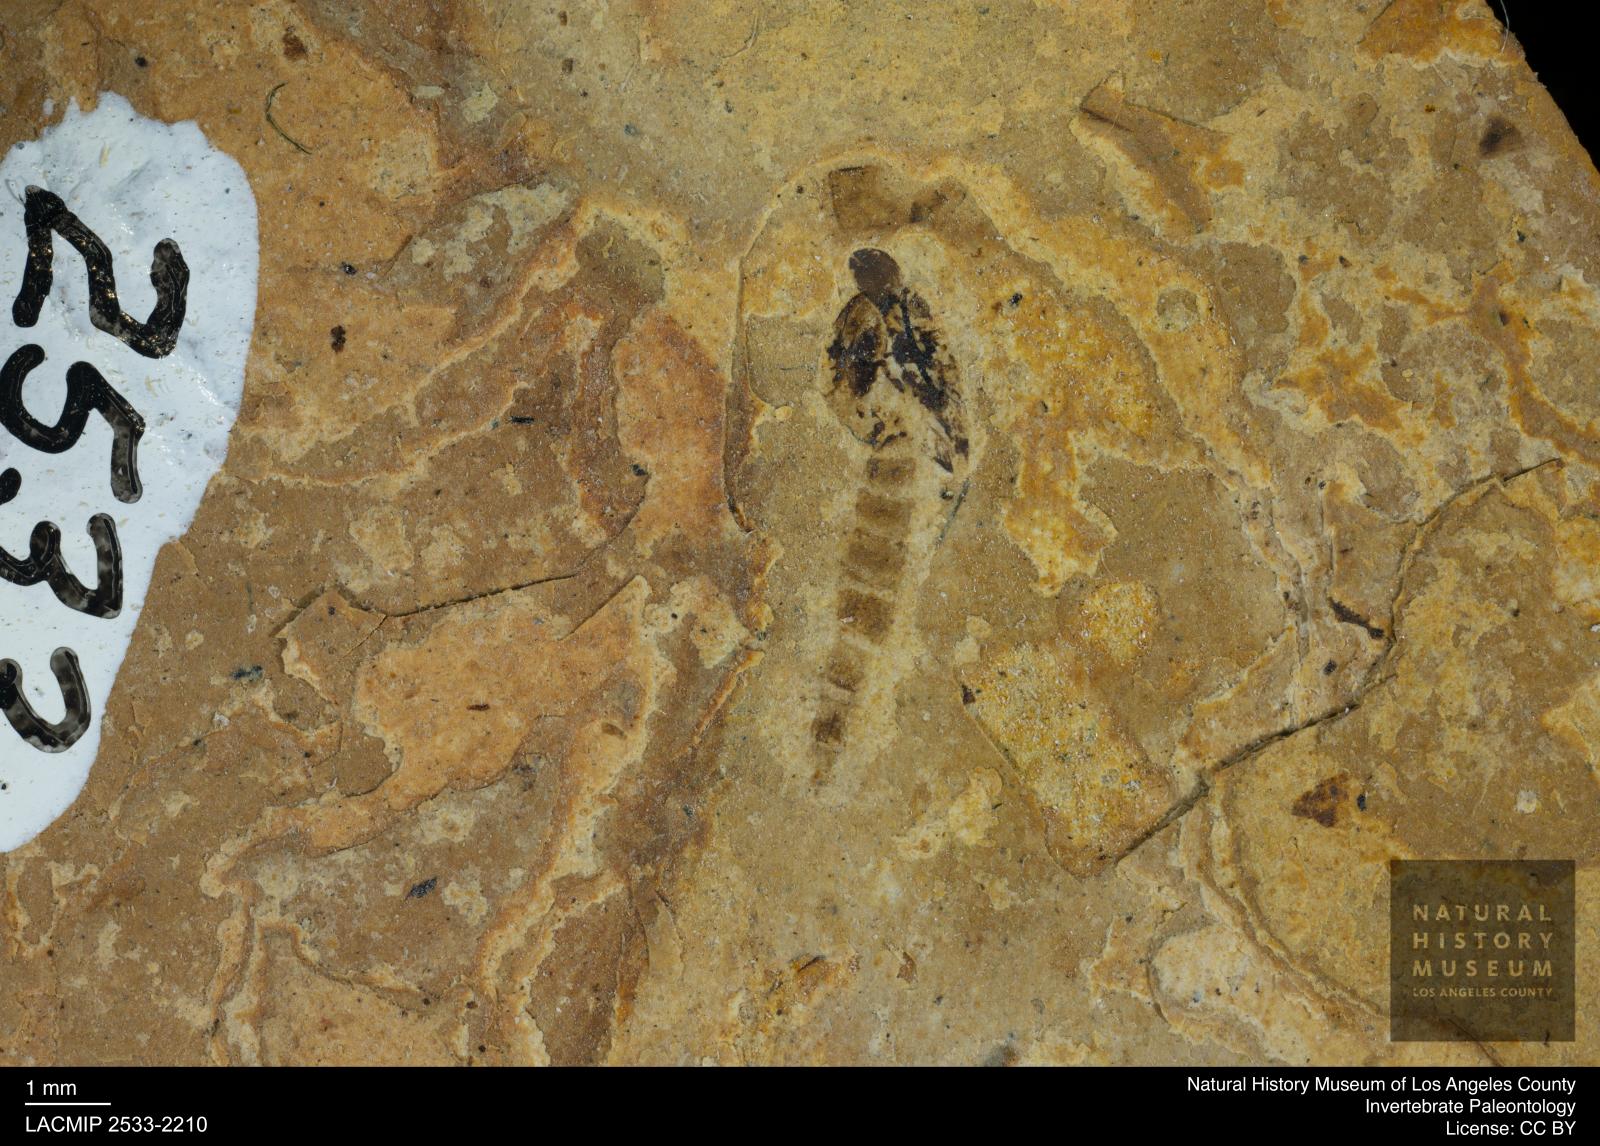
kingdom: Animalia
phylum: Arthropoda
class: Insecta
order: Diptera
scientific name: Diptera
